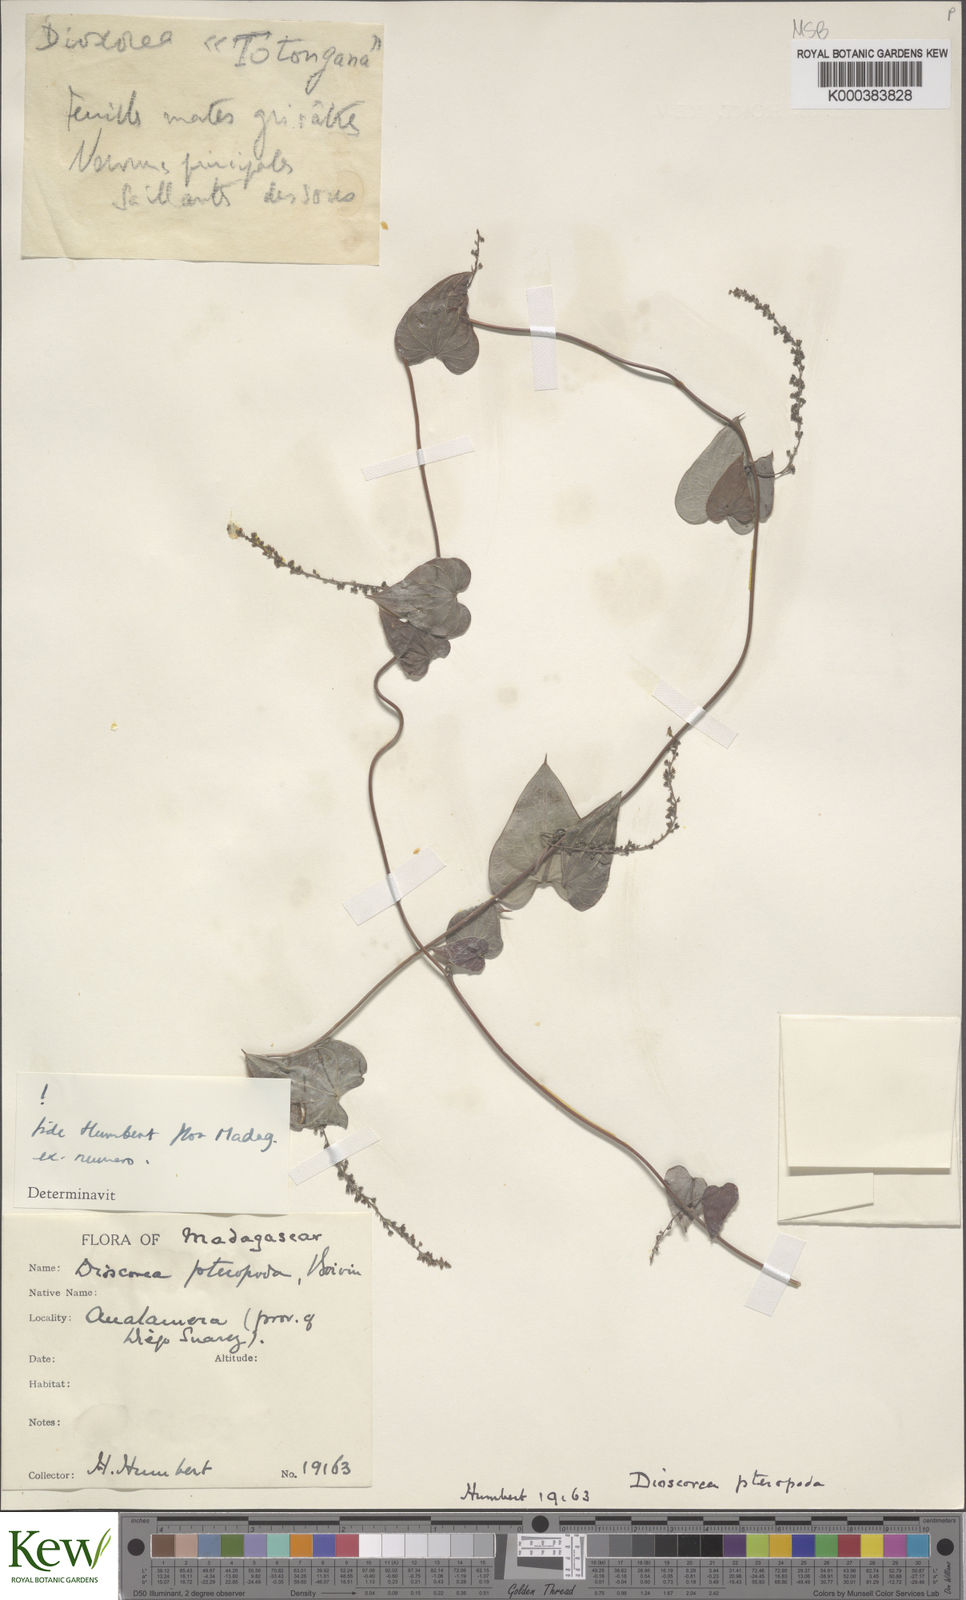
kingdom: Plantae
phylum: Tracheophyta
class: Liliopsida
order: Dioscoreales
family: Dioscoreaceae
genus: Dioscorea
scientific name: Dioscorea
